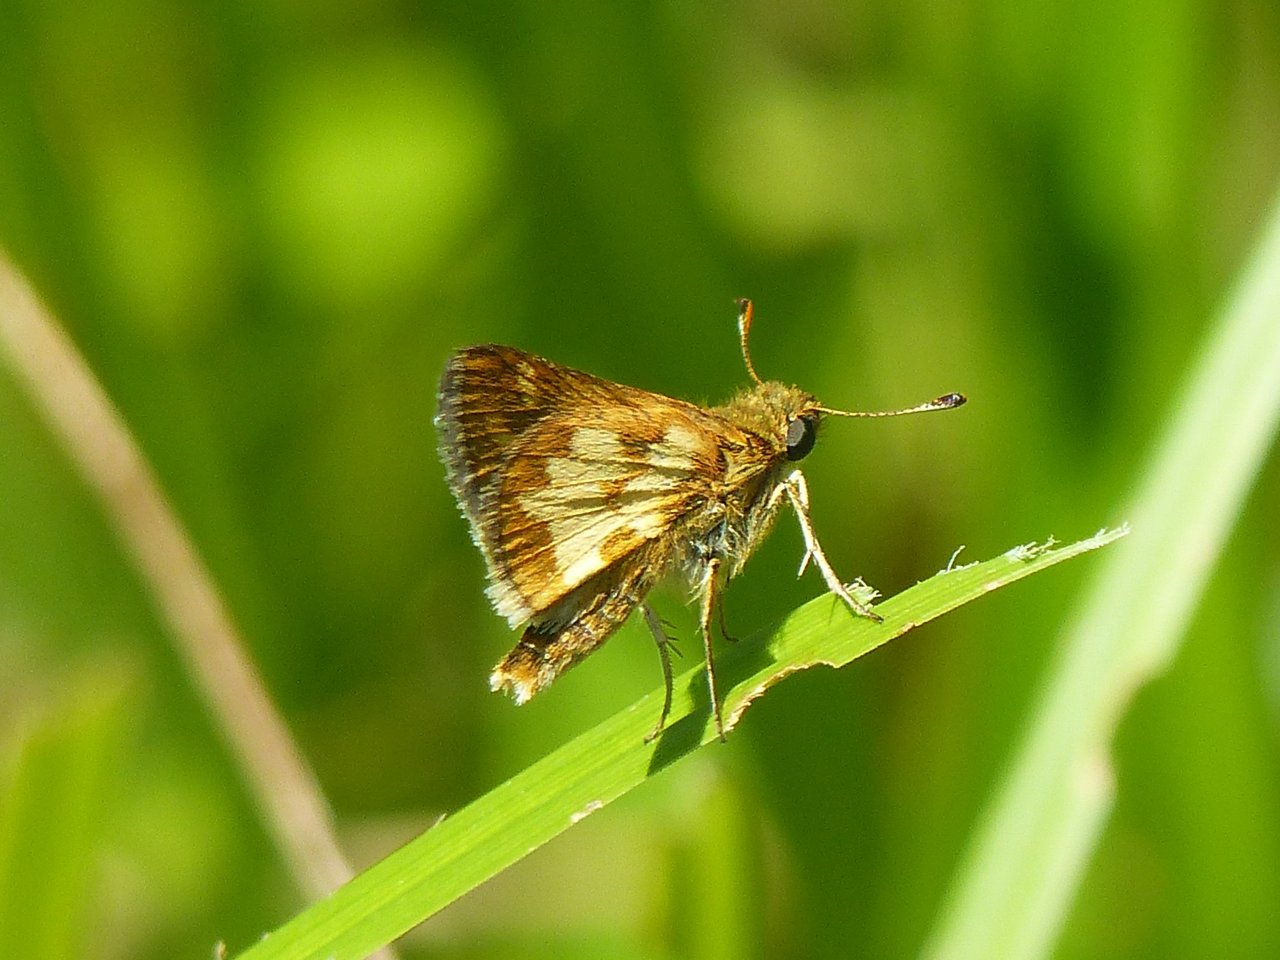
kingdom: Animalia
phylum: Arthropoda
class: Insecta
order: Lepidoptera
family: Hesperiidae
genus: Polites
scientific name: Polites coras
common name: Peck's Skipper
